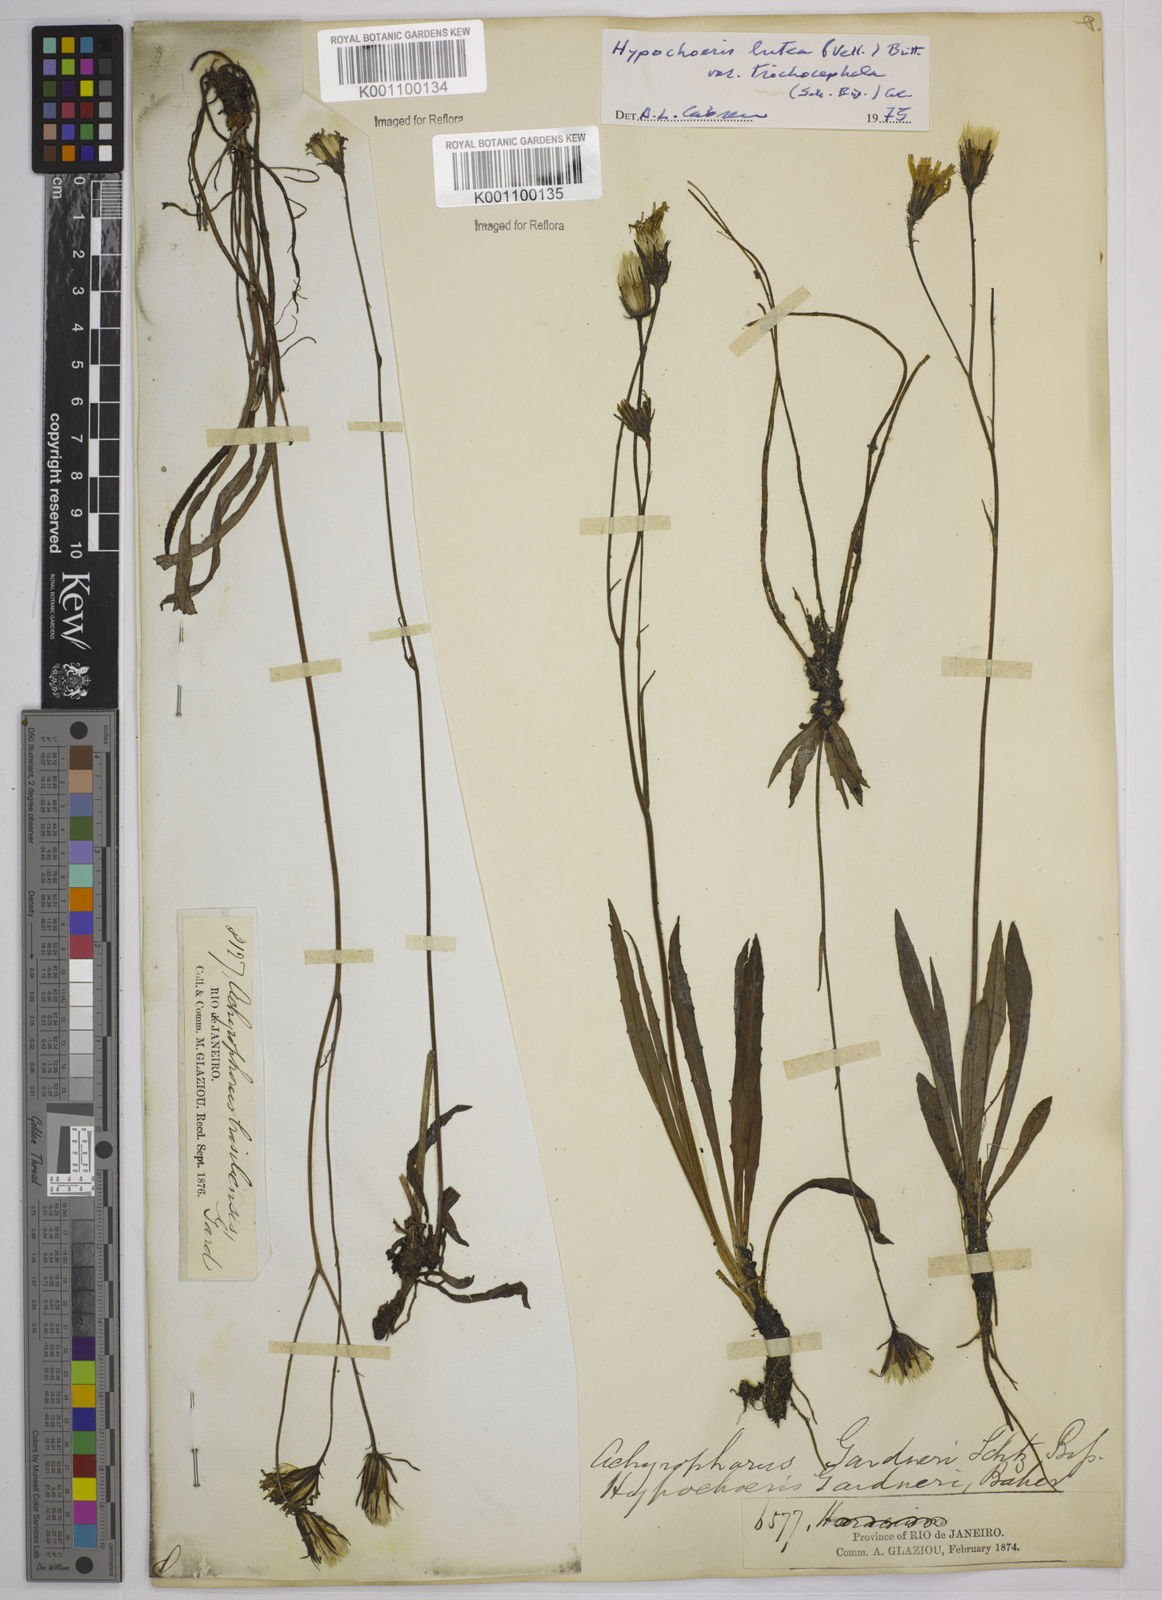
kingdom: Plantae
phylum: Tracheophyta
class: Magnoliopsida
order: Asterales
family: Asteraceae
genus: Hypochaeris
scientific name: Hypochaeris
